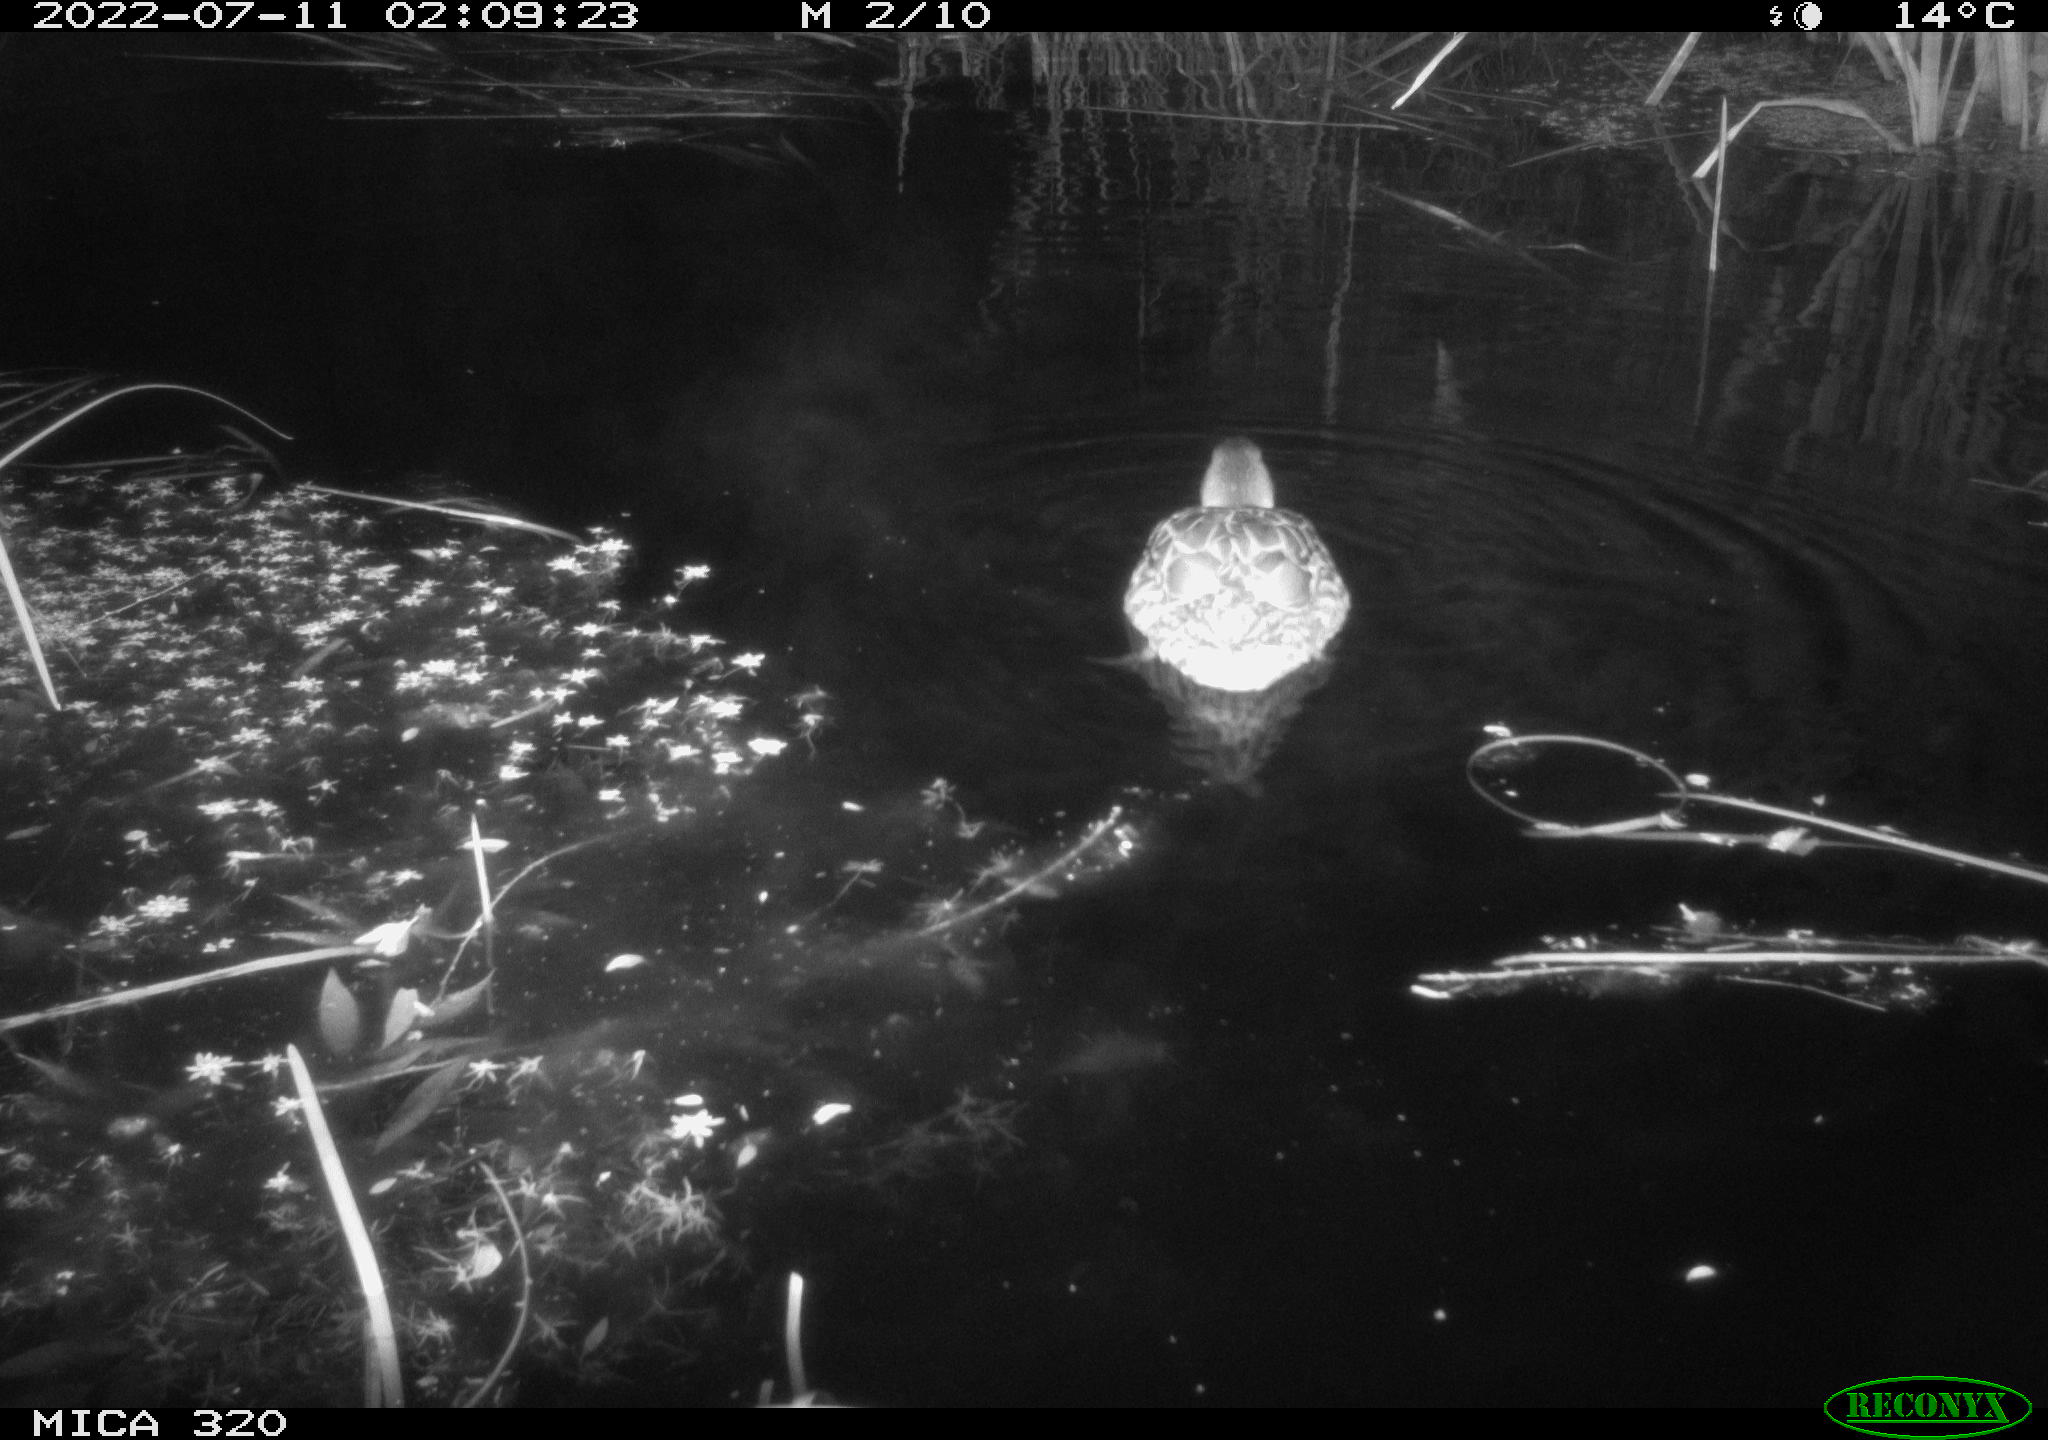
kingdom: Animalia
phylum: Chordata
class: Aves
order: Anseriformes
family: Anatidae
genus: Anas
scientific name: Anas platyrhynchos
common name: Mallard
